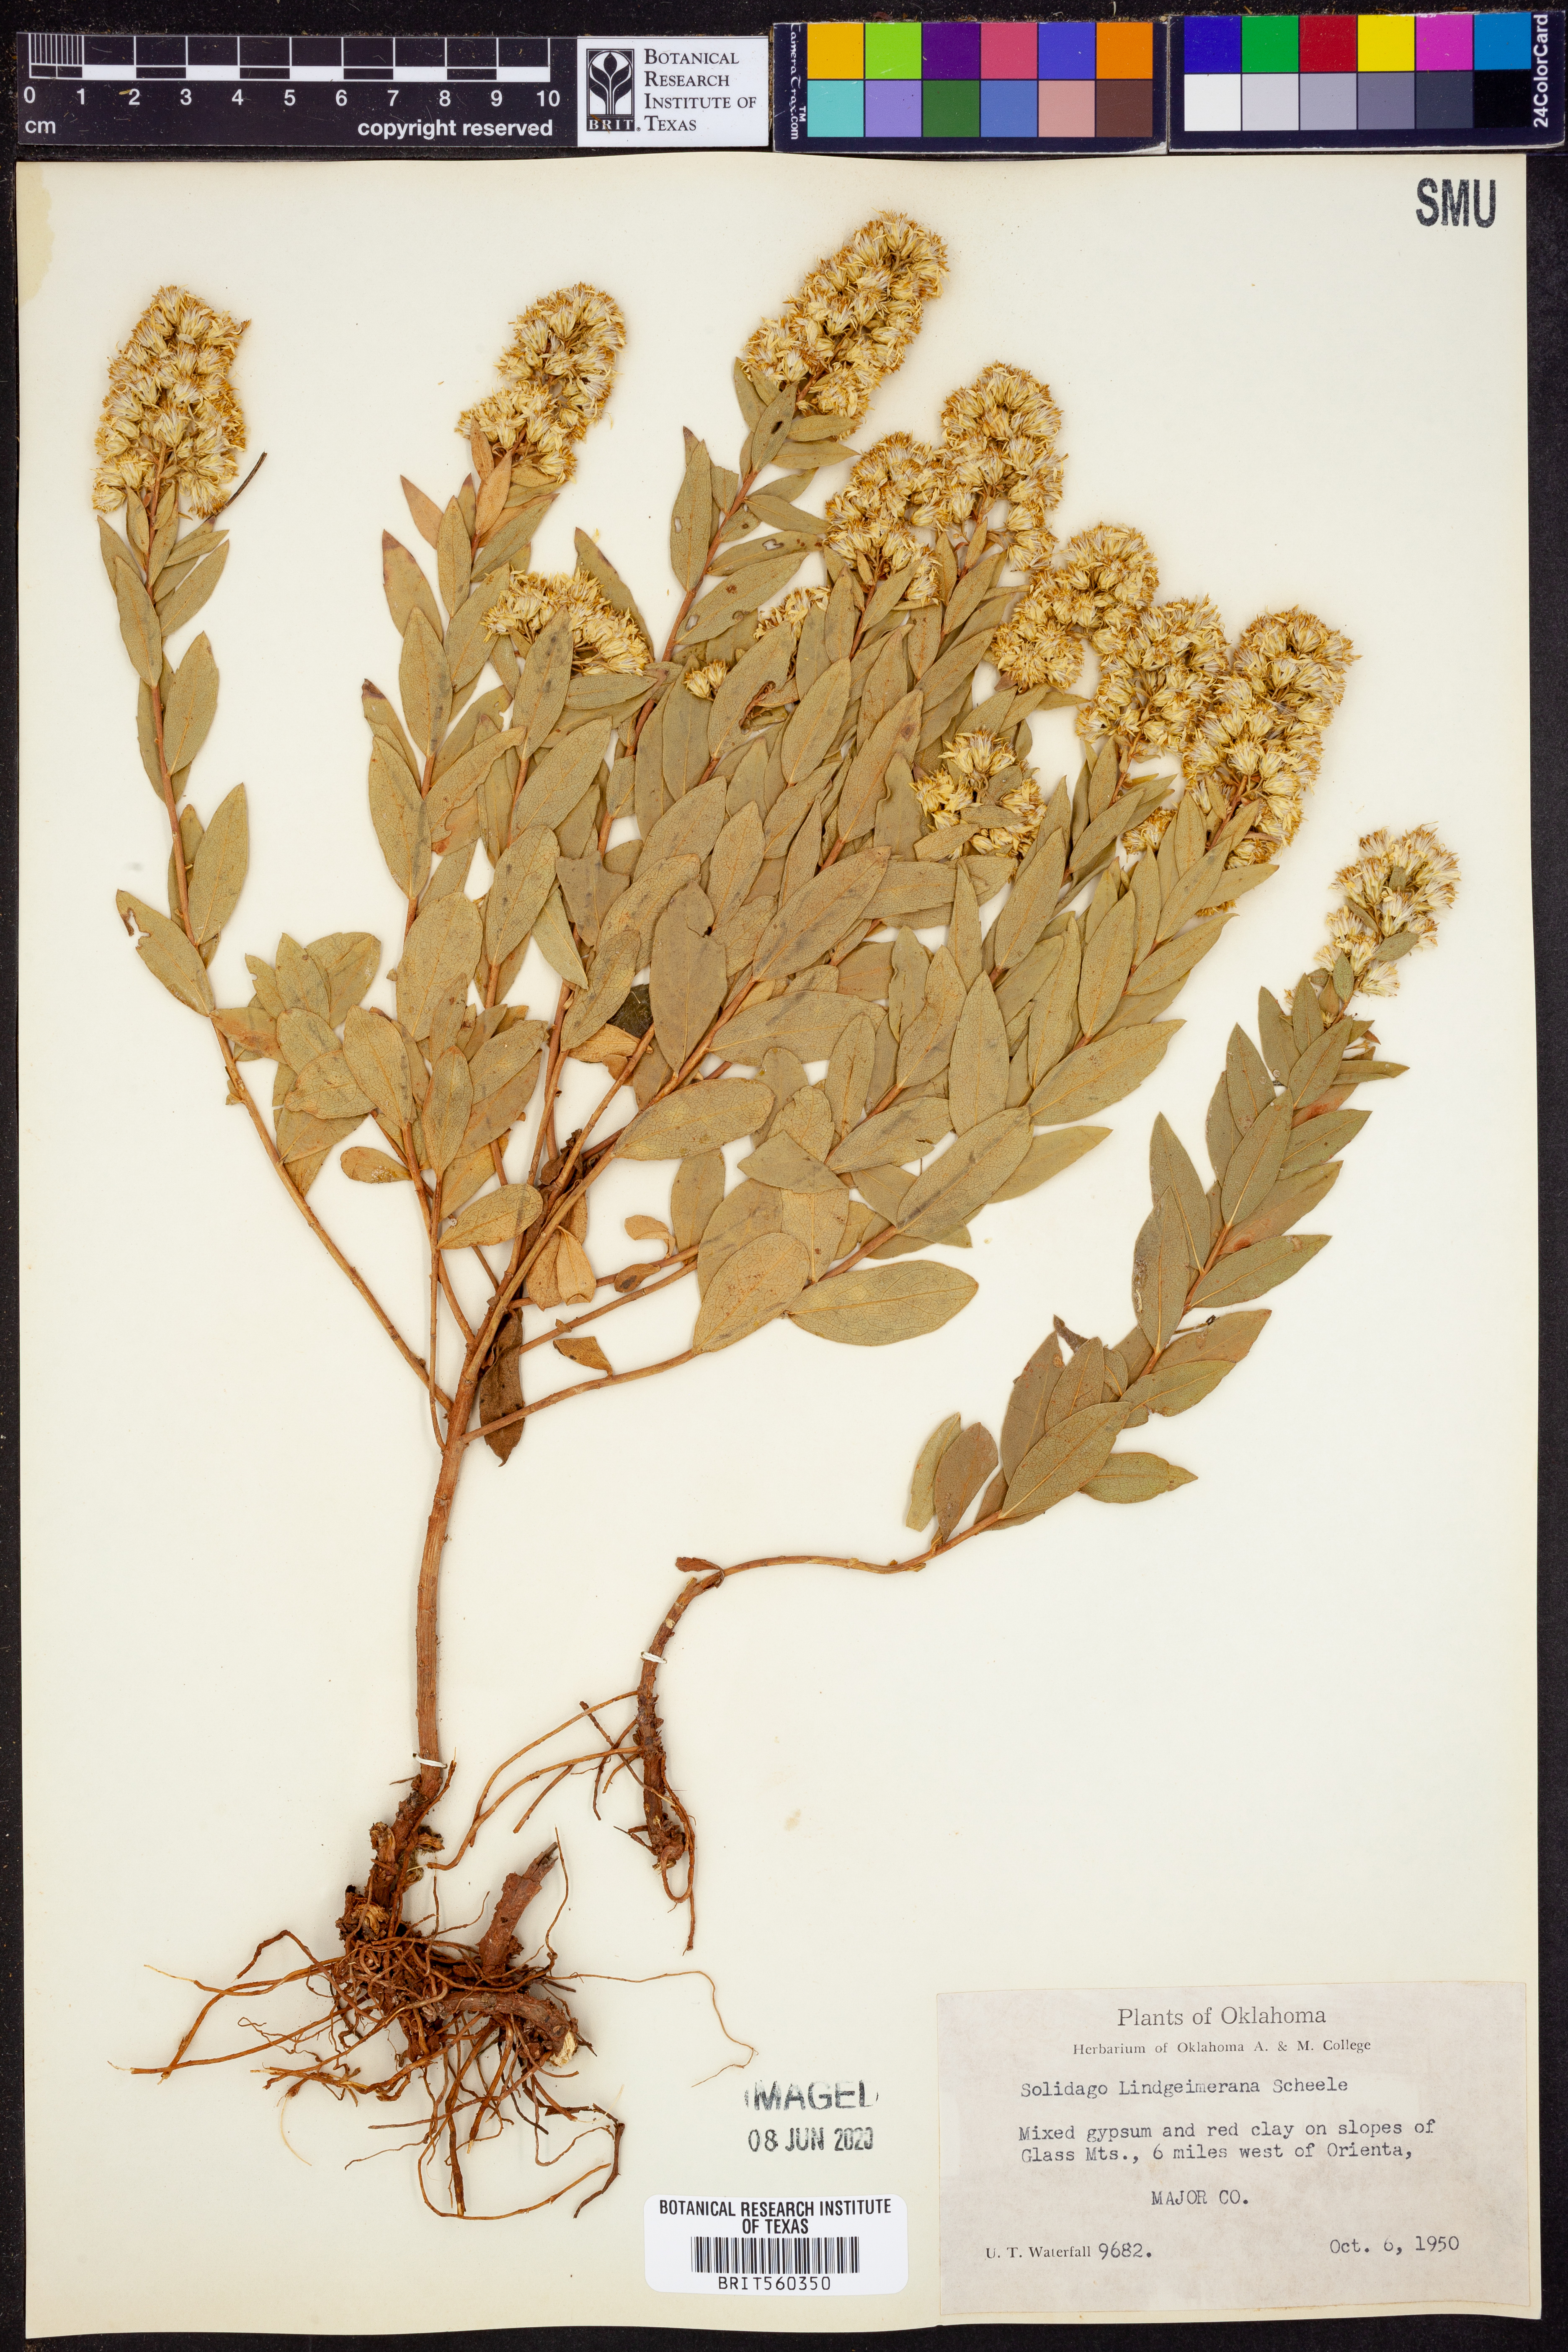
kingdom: Plantae
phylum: Tracheophyta
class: Magnoliopsida
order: Asterales
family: Asteraceae
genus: Solidago
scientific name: Solidago petiolaris
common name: Downy ragged goldenrod
